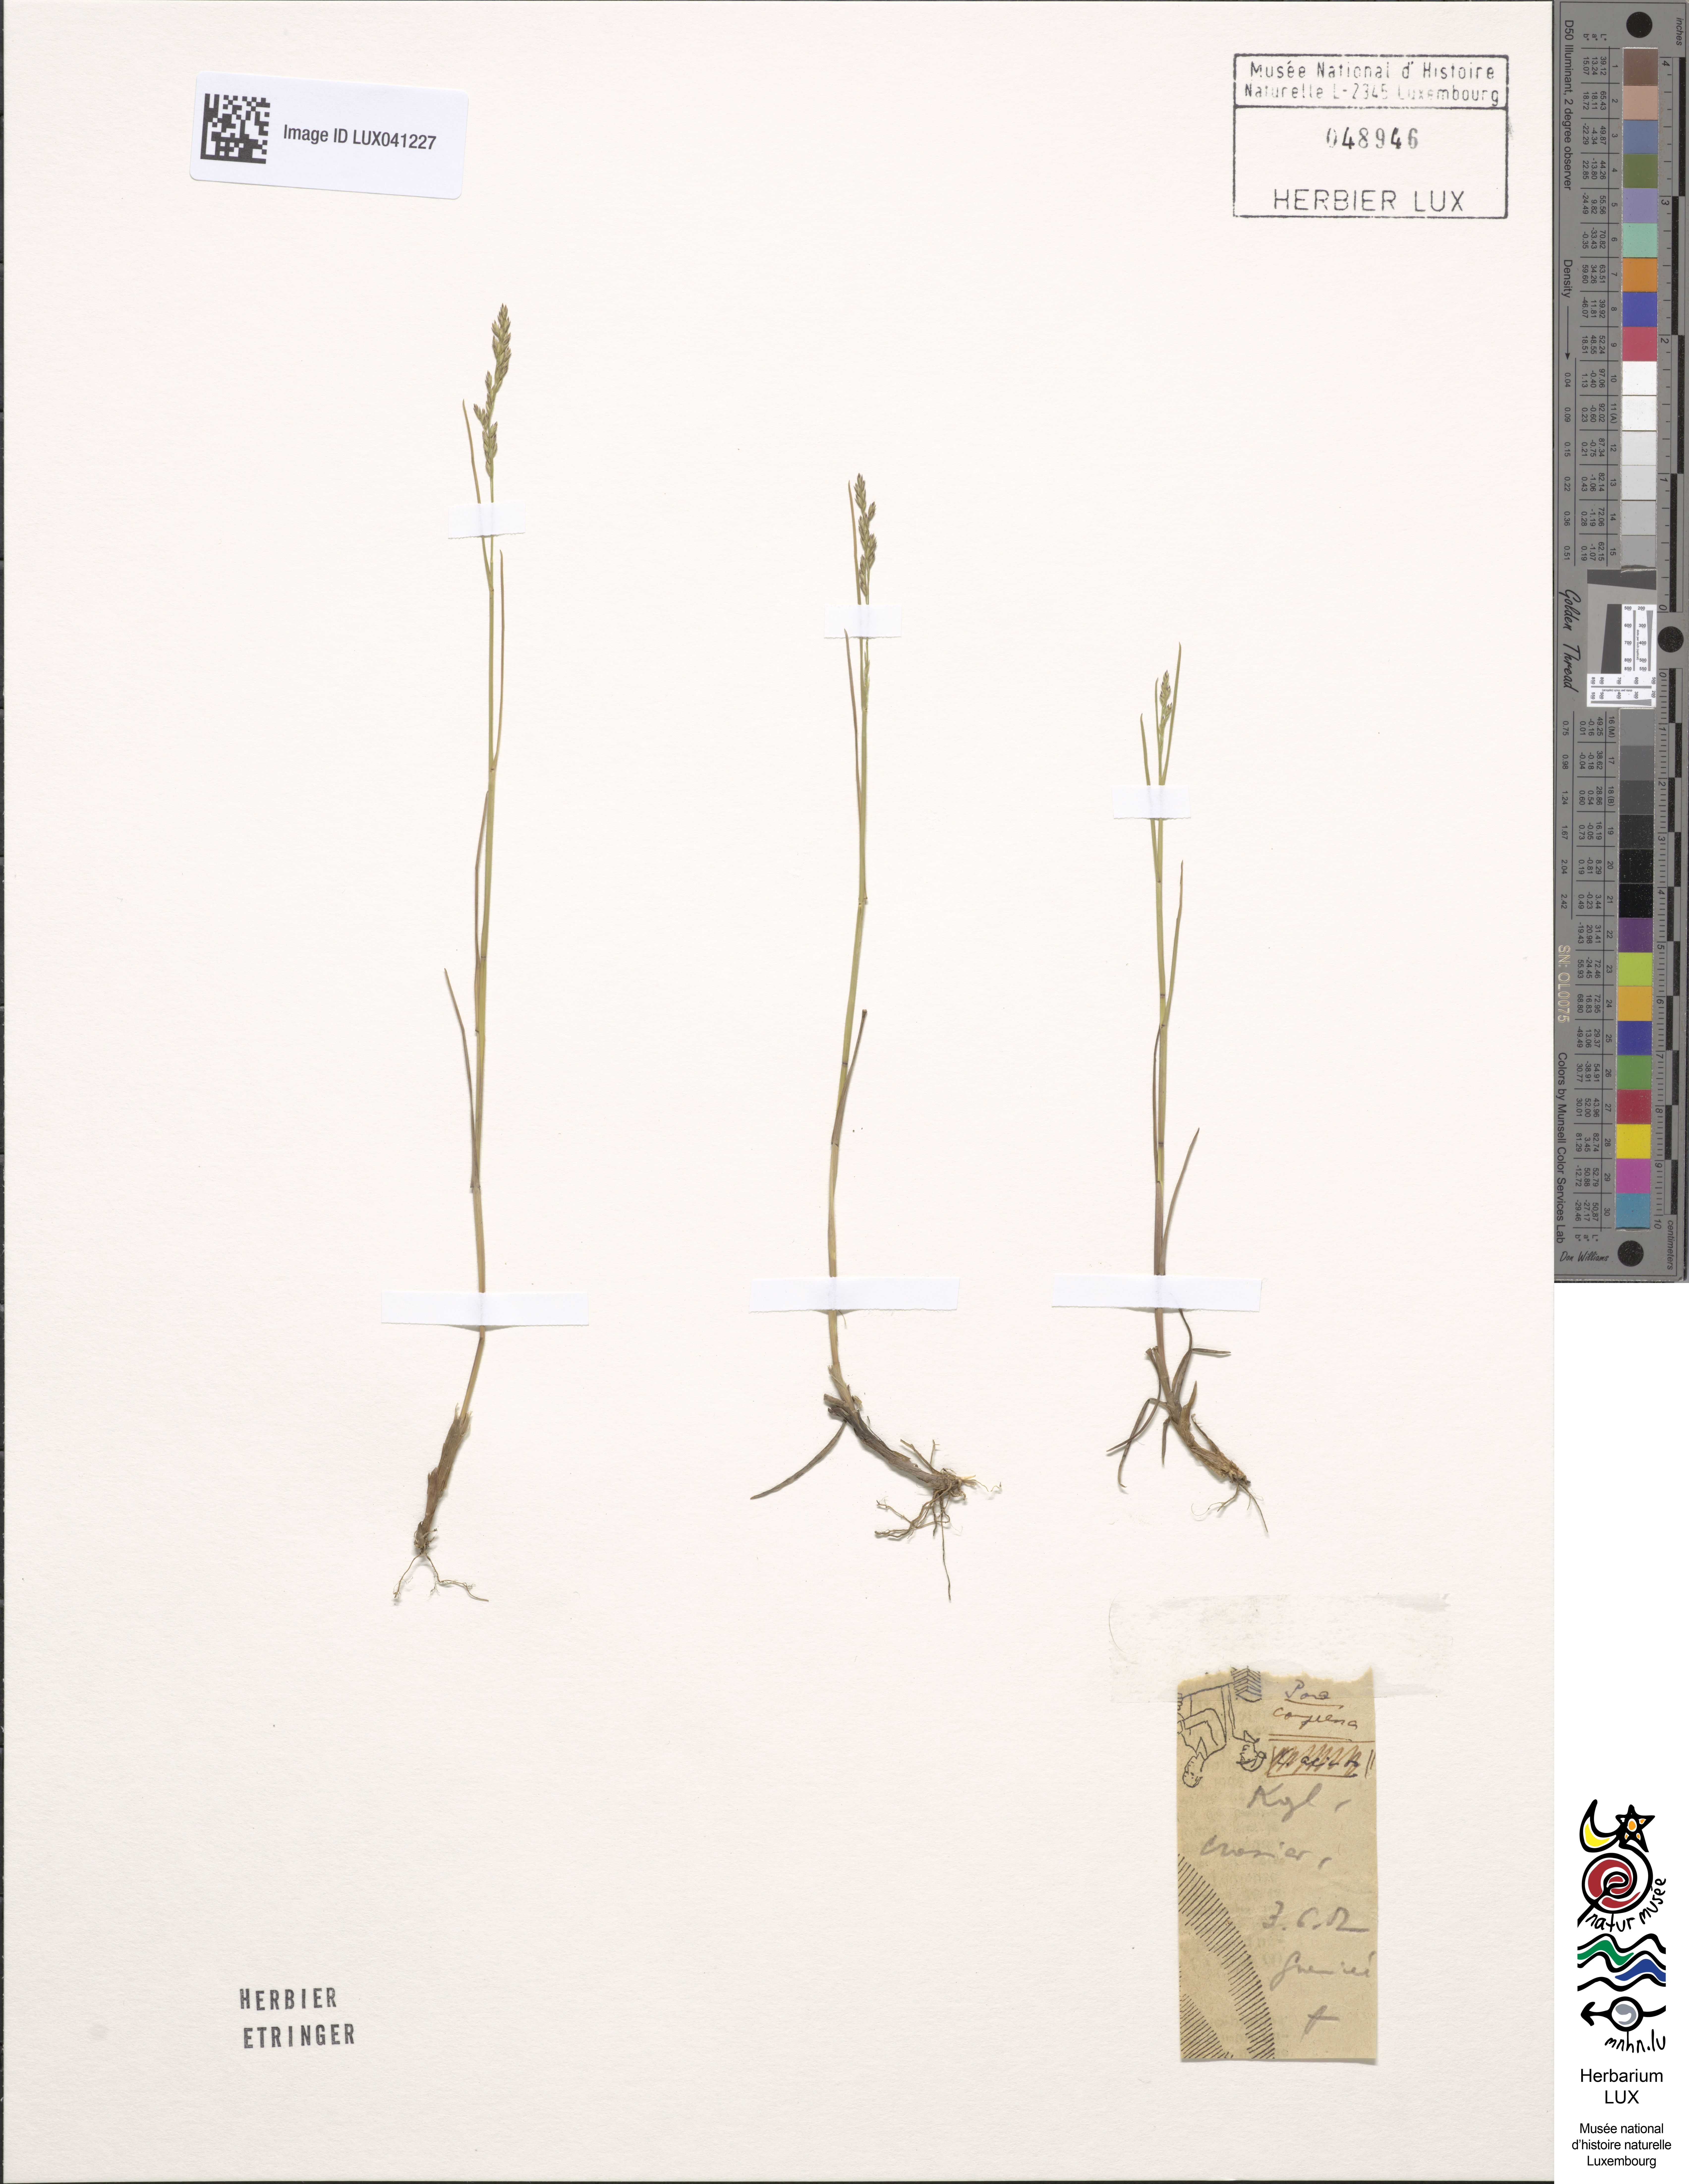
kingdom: Plantae
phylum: Tracheophyta
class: Liliopsida
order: Poales
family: Poaceae
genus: Poa
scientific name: Poa compressa
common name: Canada bluegrass
